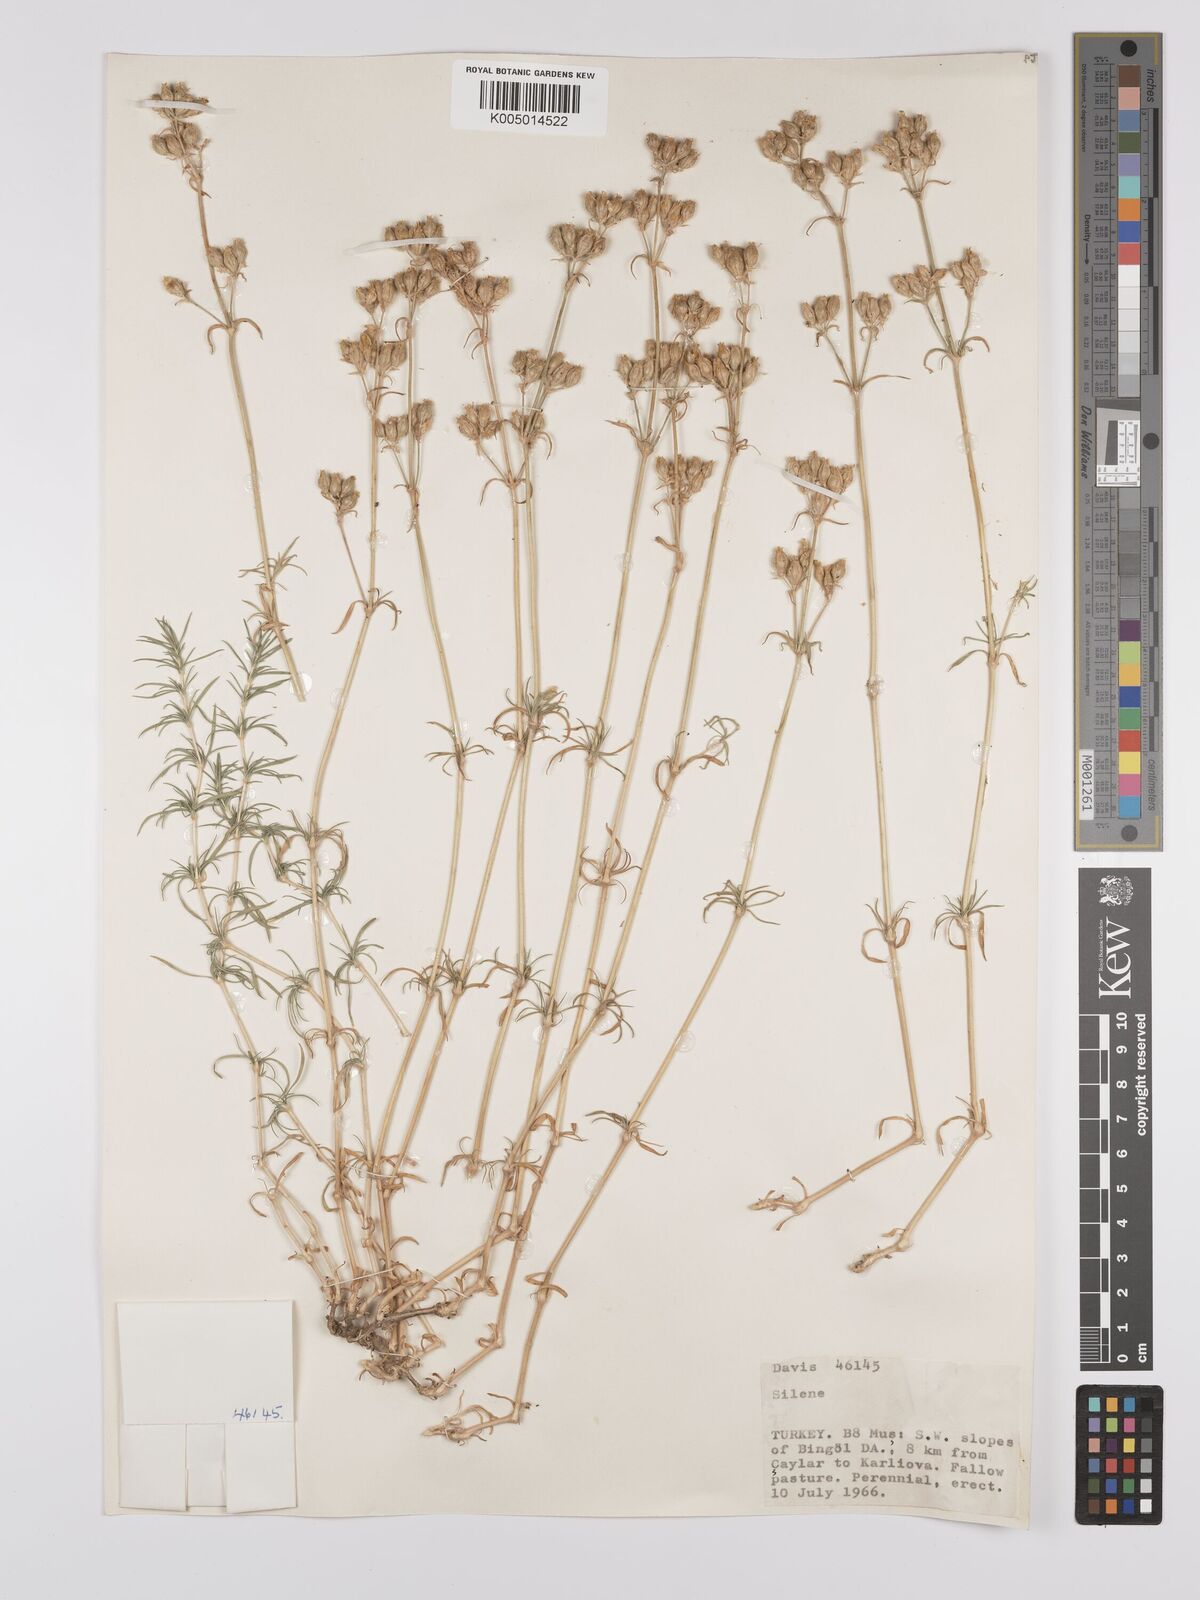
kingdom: Plantae
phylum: Tracheophyta
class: Magnoliopsida
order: Caryophyllales
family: Caryophyllaceae
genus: Silene
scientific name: Silene
